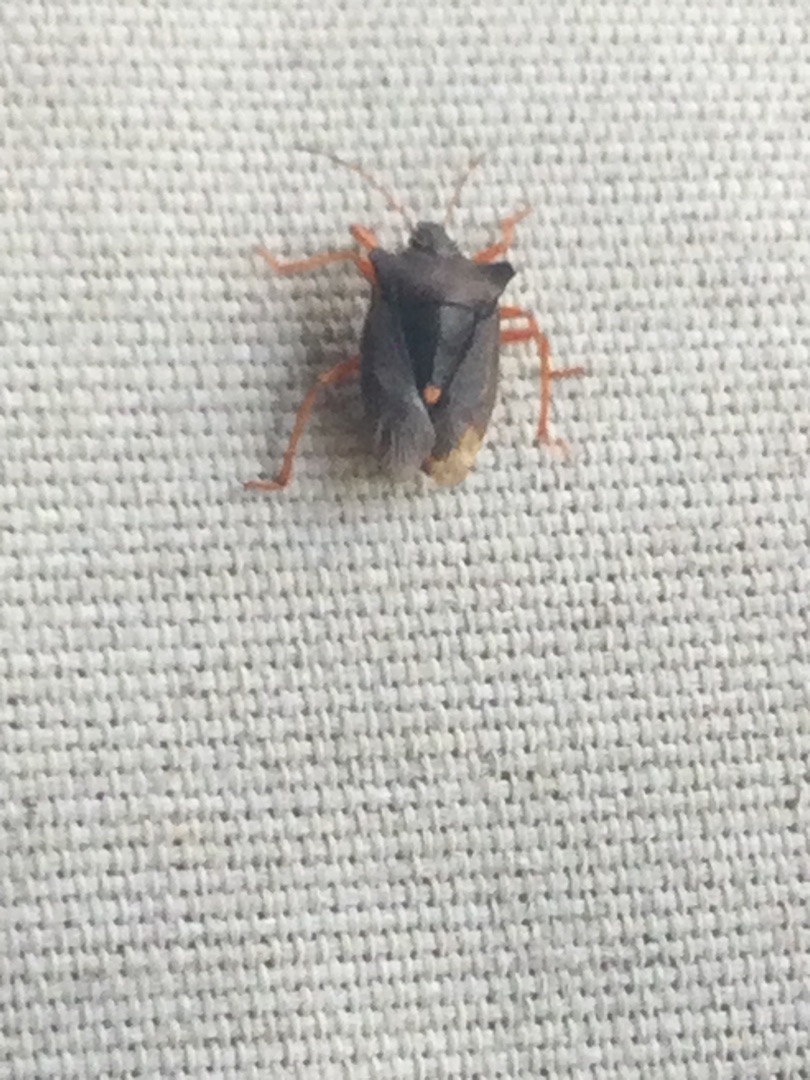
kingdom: Animalia
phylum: Arthropoda
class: Insecta
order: Hemiptera
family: Pentatomidae
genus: Pentatoma
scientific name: Pentatoma rufipes
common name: Rødbenet bredtæge
